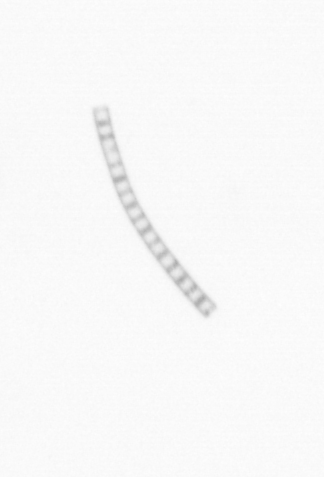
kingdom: Chromista
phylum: Ochrophyta
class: Bacillariophyceae
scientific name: Bacillariophyceae
